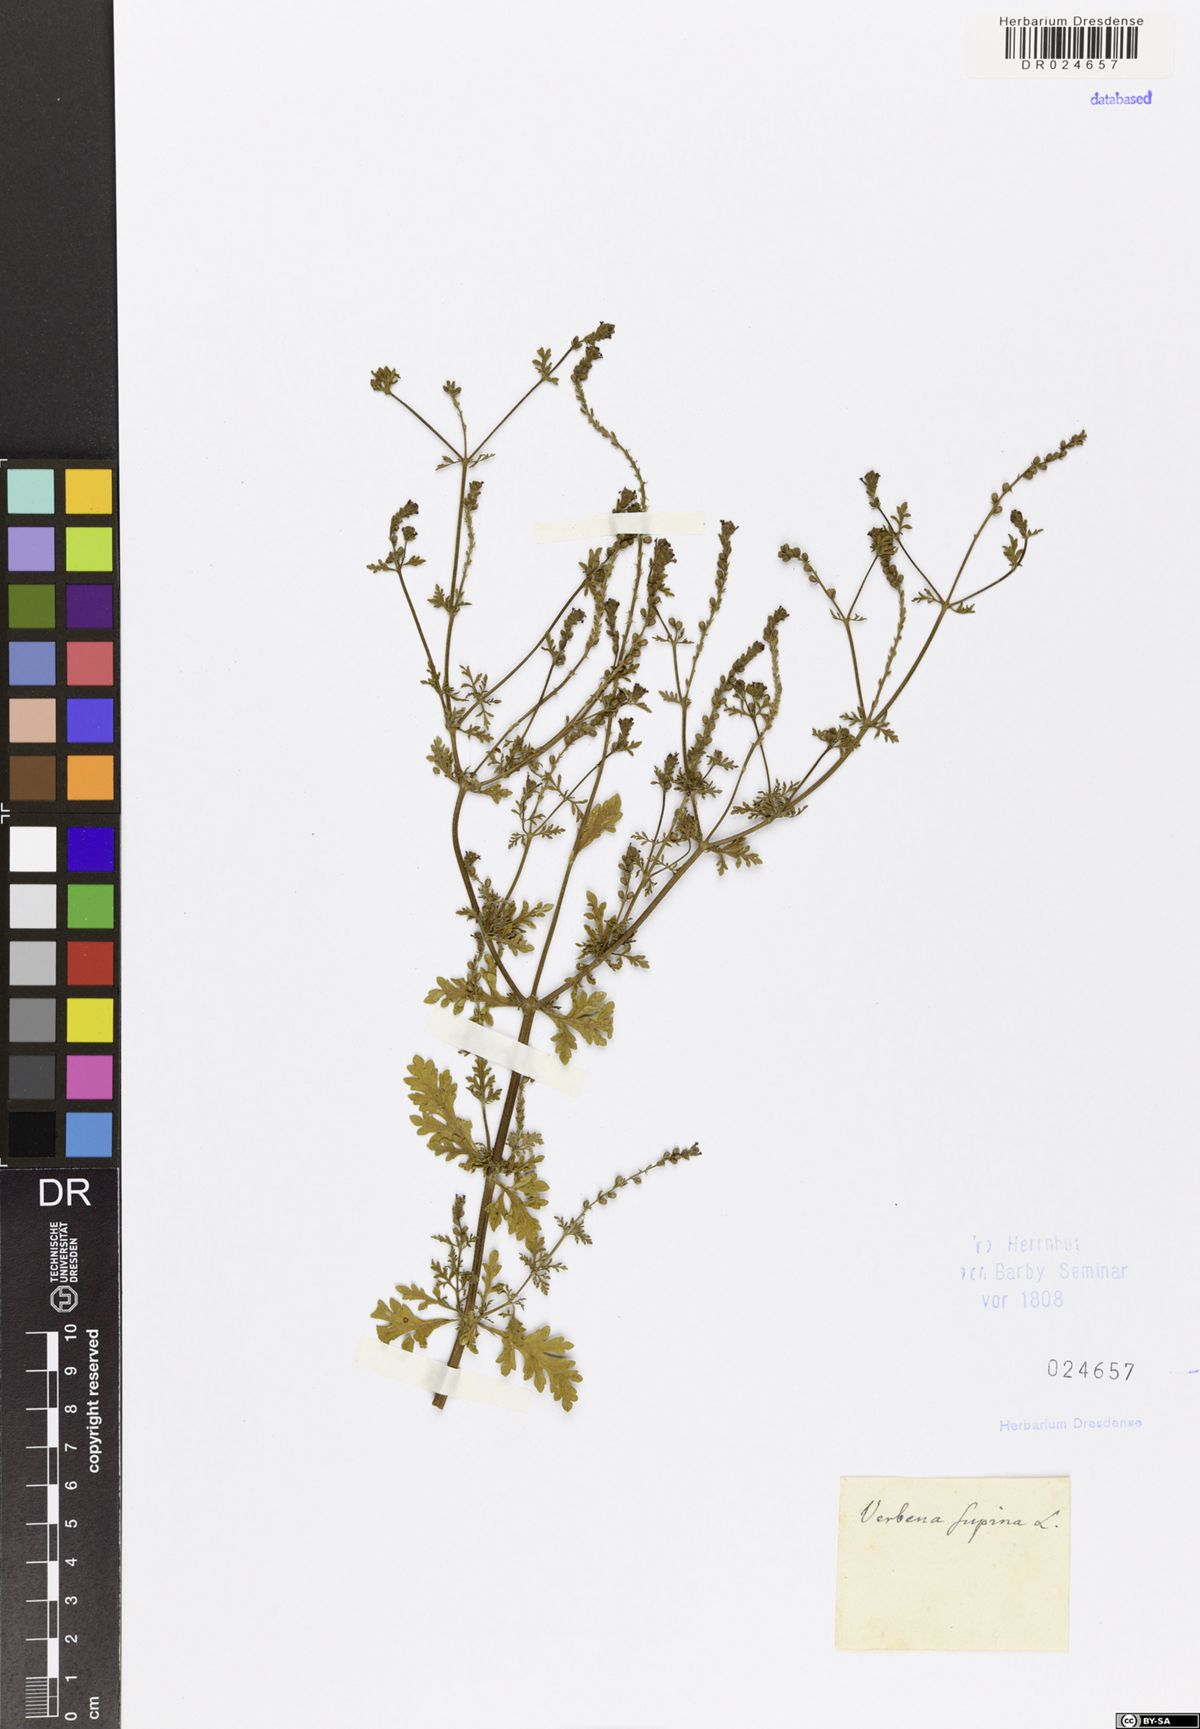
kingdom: Plantae
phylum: Tracheophyta
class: Magnoliopsida
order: Lamiales
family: Verbenaceae
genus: Verbena
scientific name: Verbena supina
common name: Trailing vervain
